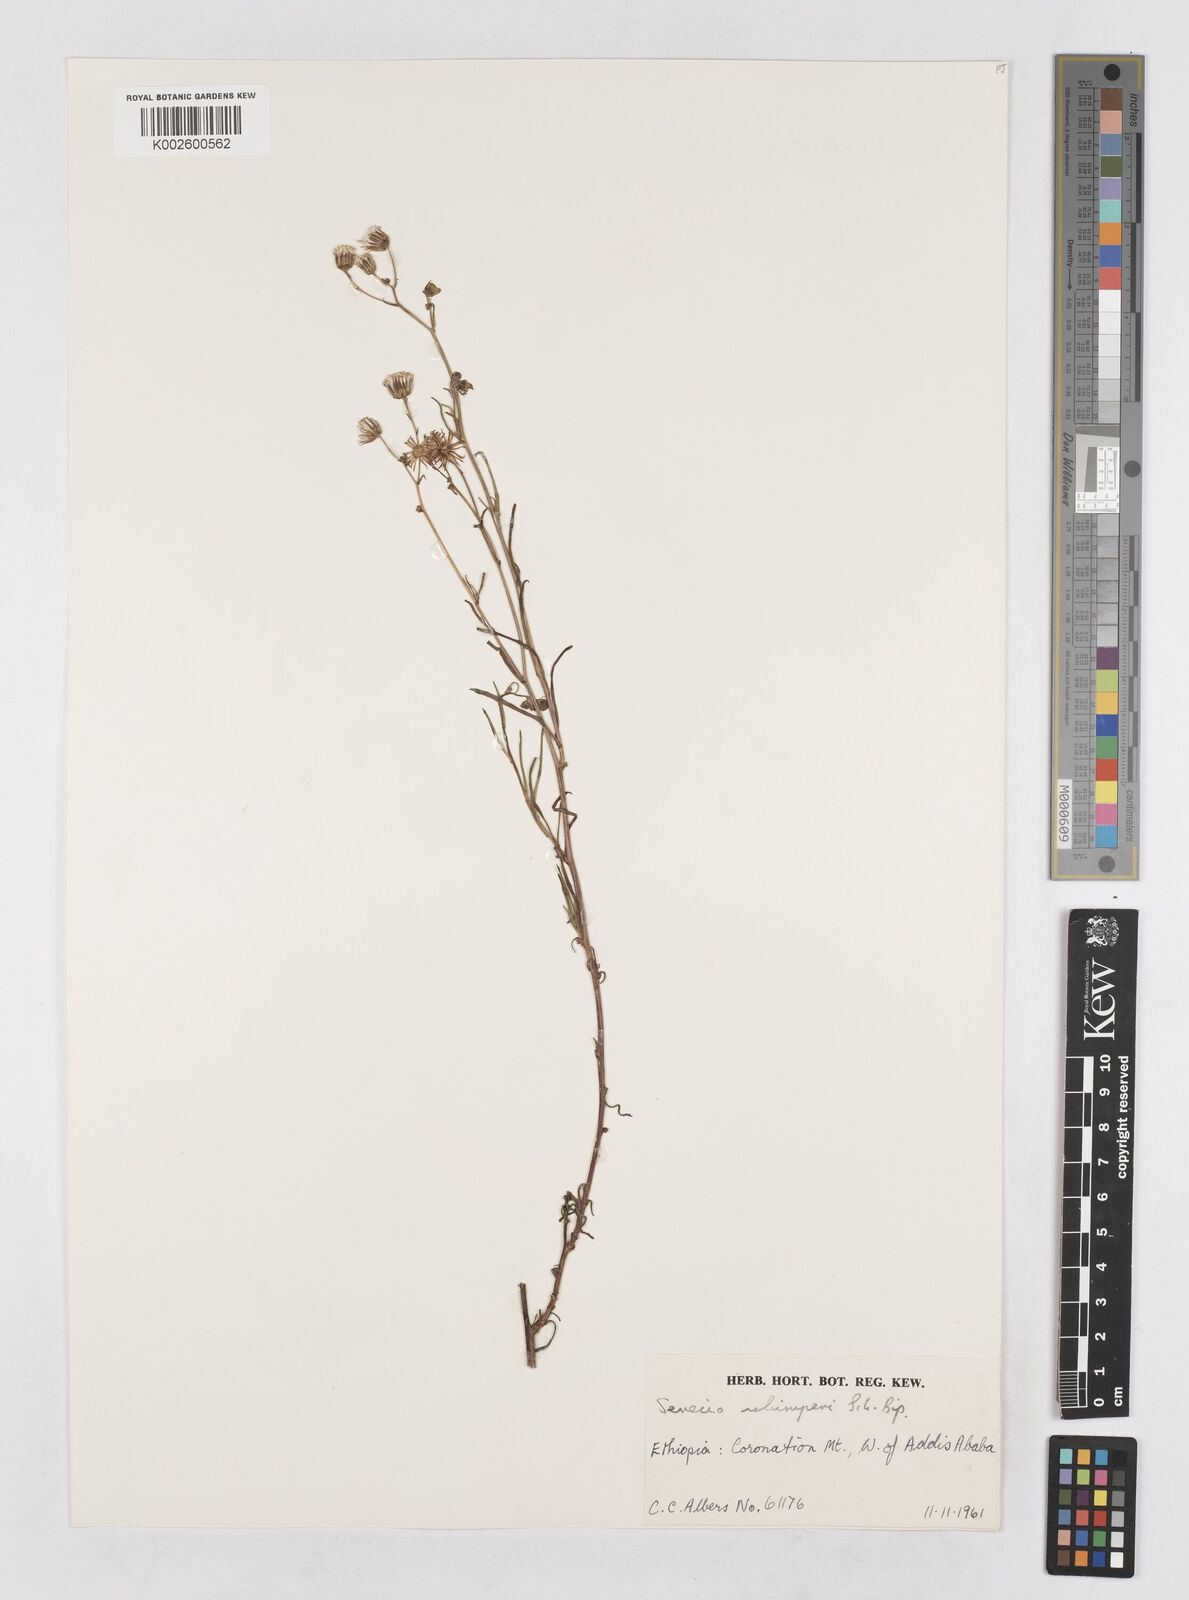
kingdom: Plantae
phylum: Tracheophyta
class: Magnoliopsida
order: Asterales
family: Asteraceae
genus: Senecio
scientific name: Senecio schimperi
